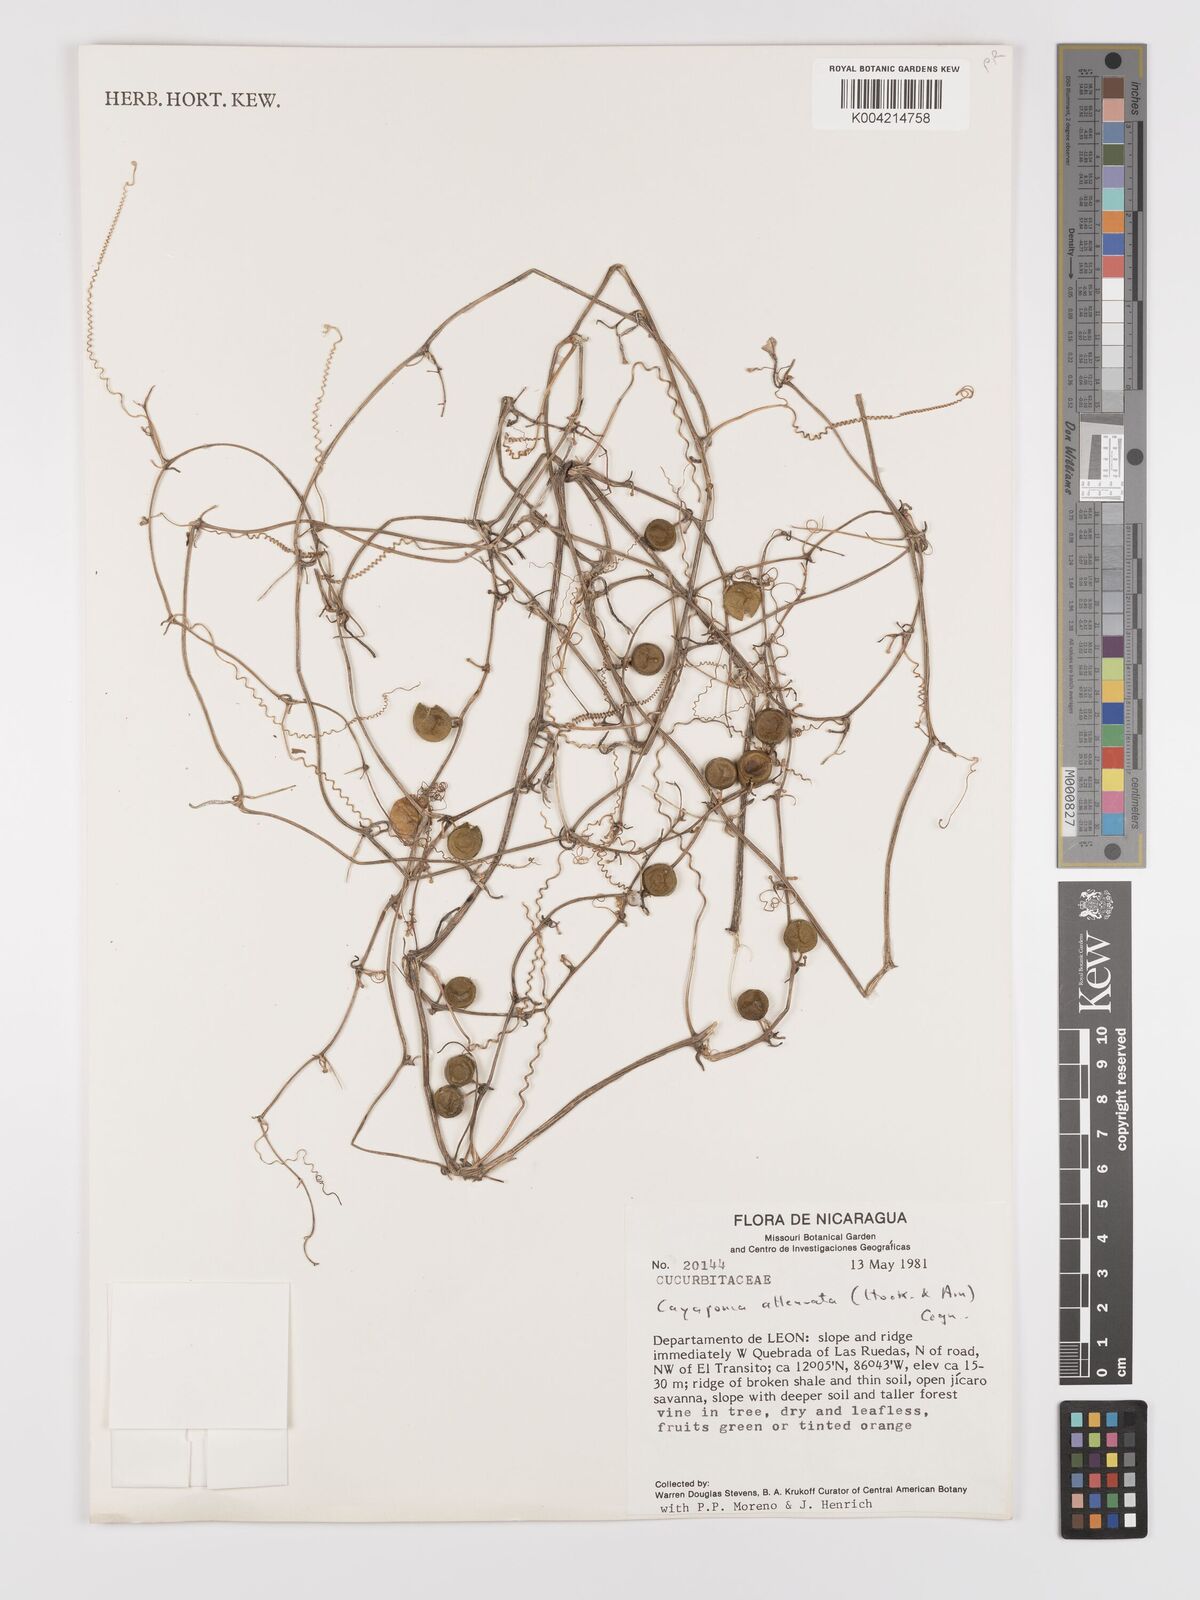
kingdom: Plantae
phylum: Tracheophyta
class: Magnoliopsida
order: Cucurbitales
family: Cucurbitaceae
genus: Cayaponia
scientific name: Cayaponia attenuata
